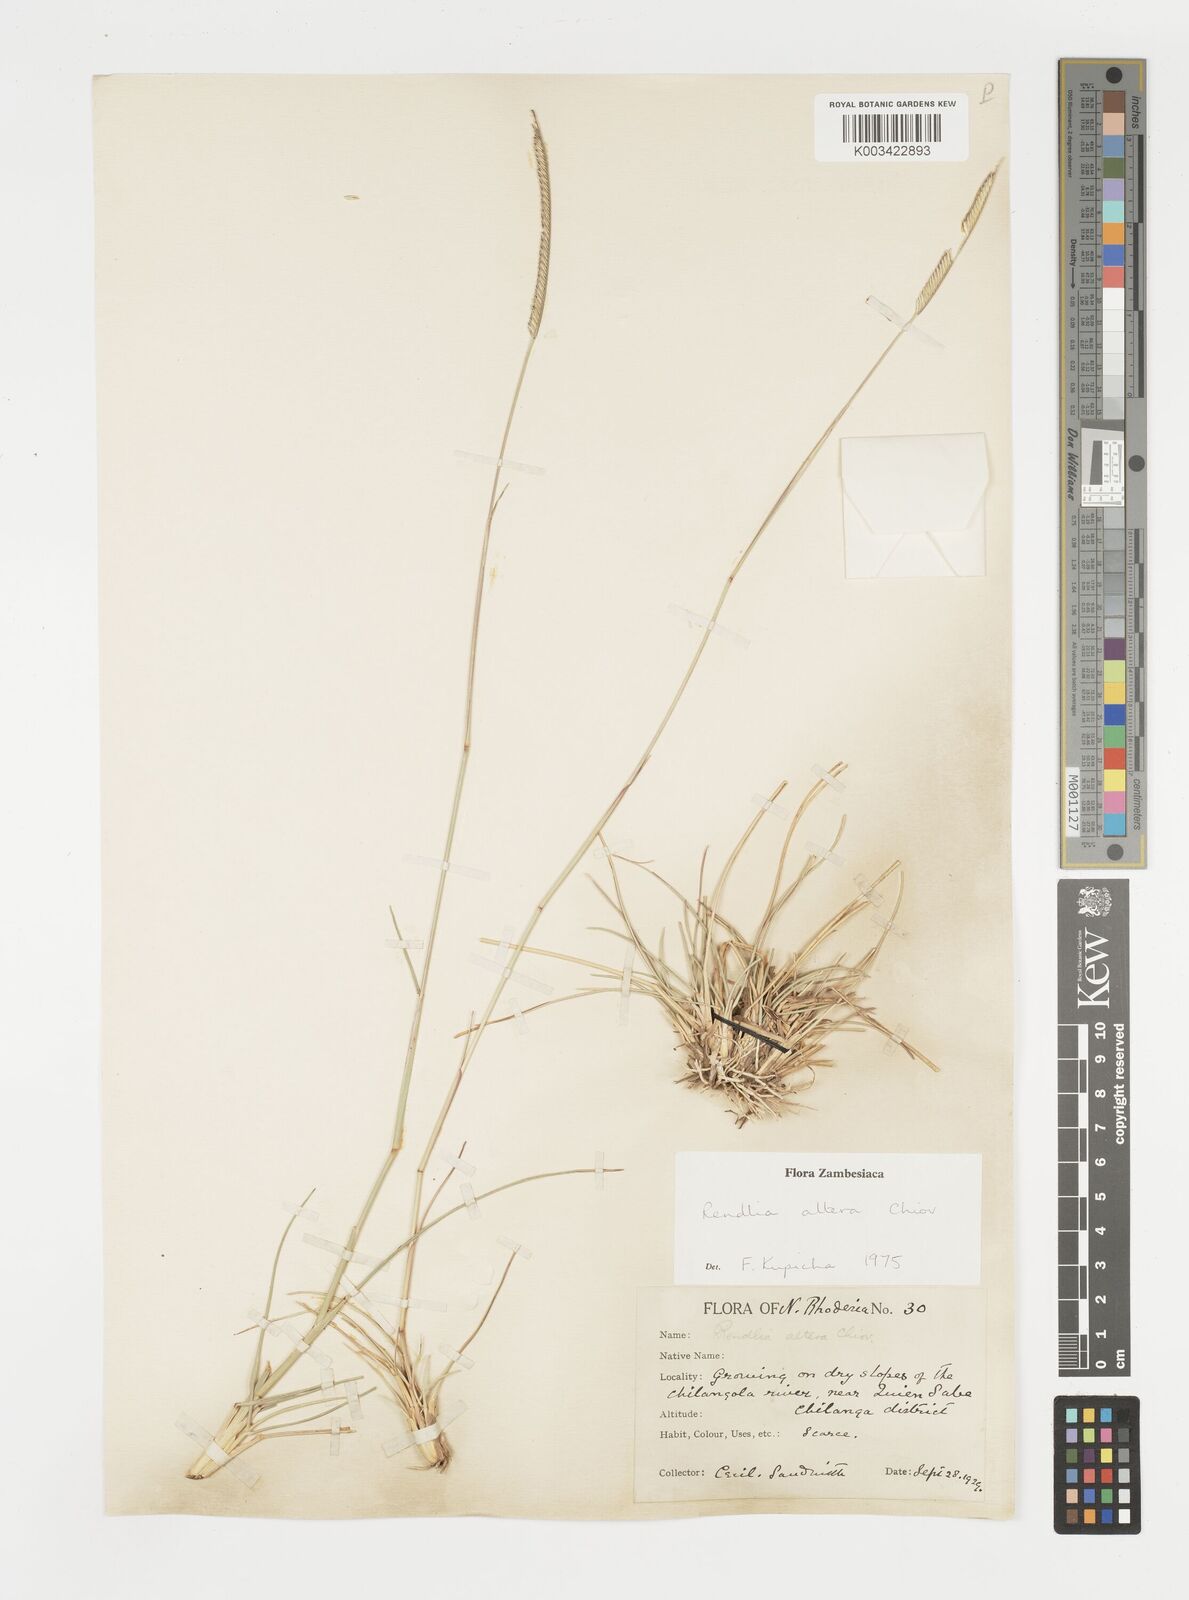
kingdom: Plantae
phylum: Tracheophyta
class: Liliopsida
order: Poales
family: Poaceae
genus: Microchloa
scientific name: Microchloa altera
